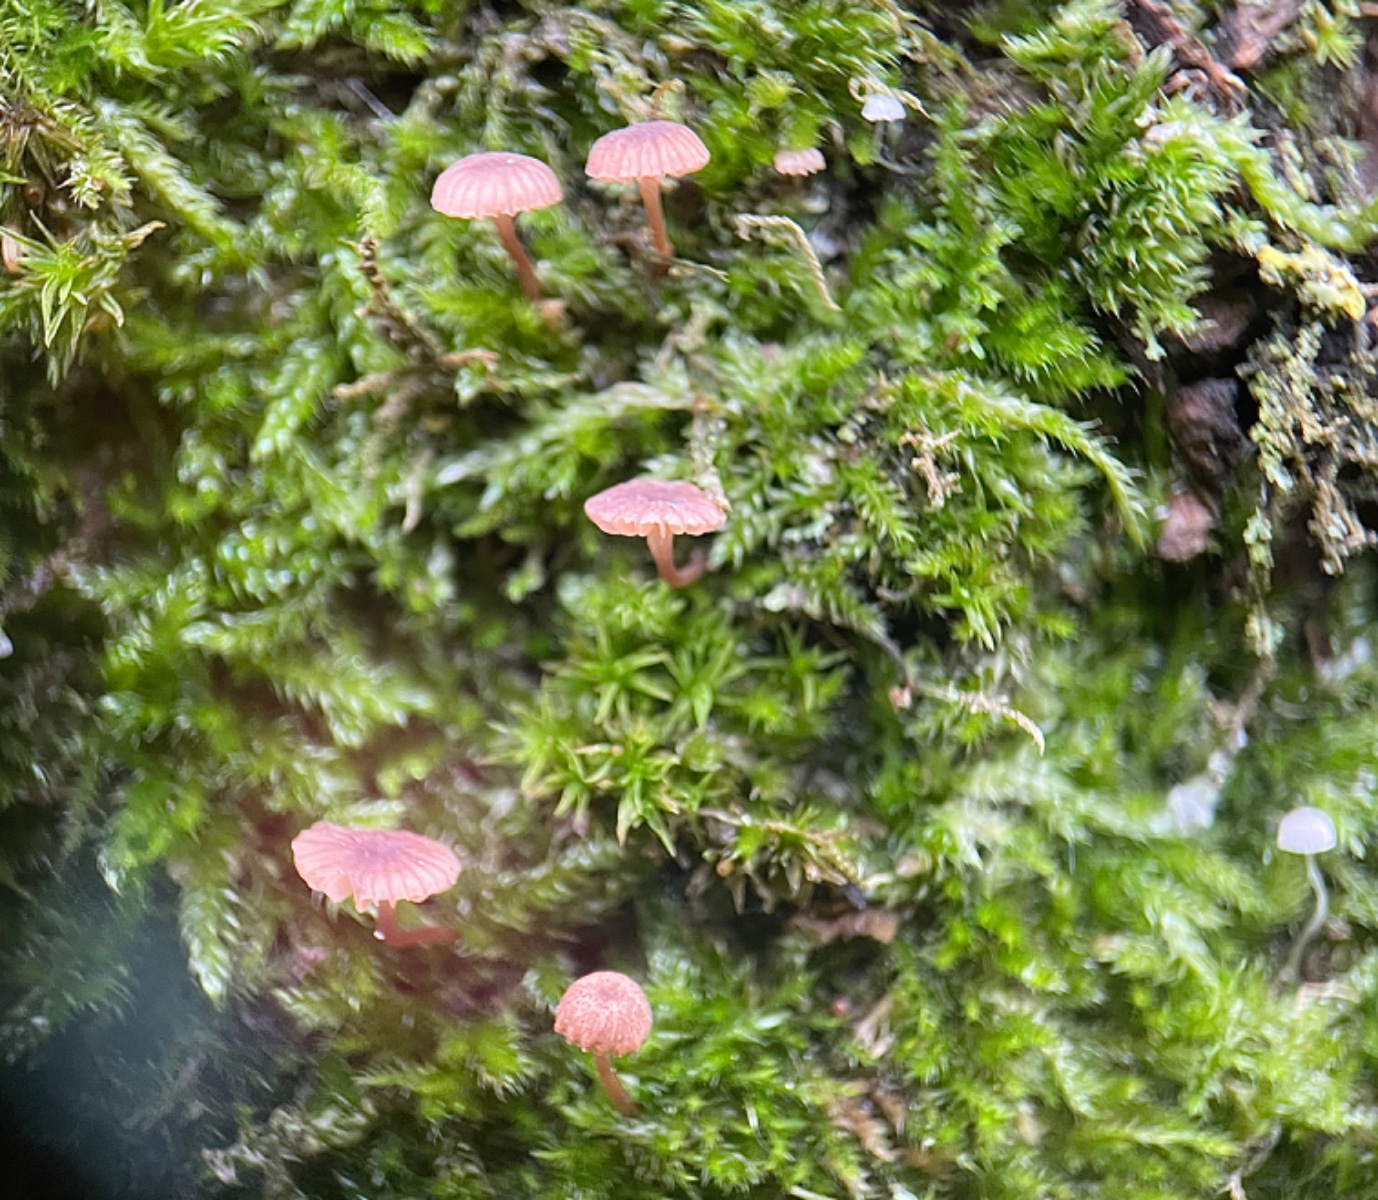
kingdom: Fungi
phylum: Basidiomycota
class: Agaricomycetes
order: Agaricales
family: Mycenaceae
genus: Mycena
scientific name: Mycena meliigena
